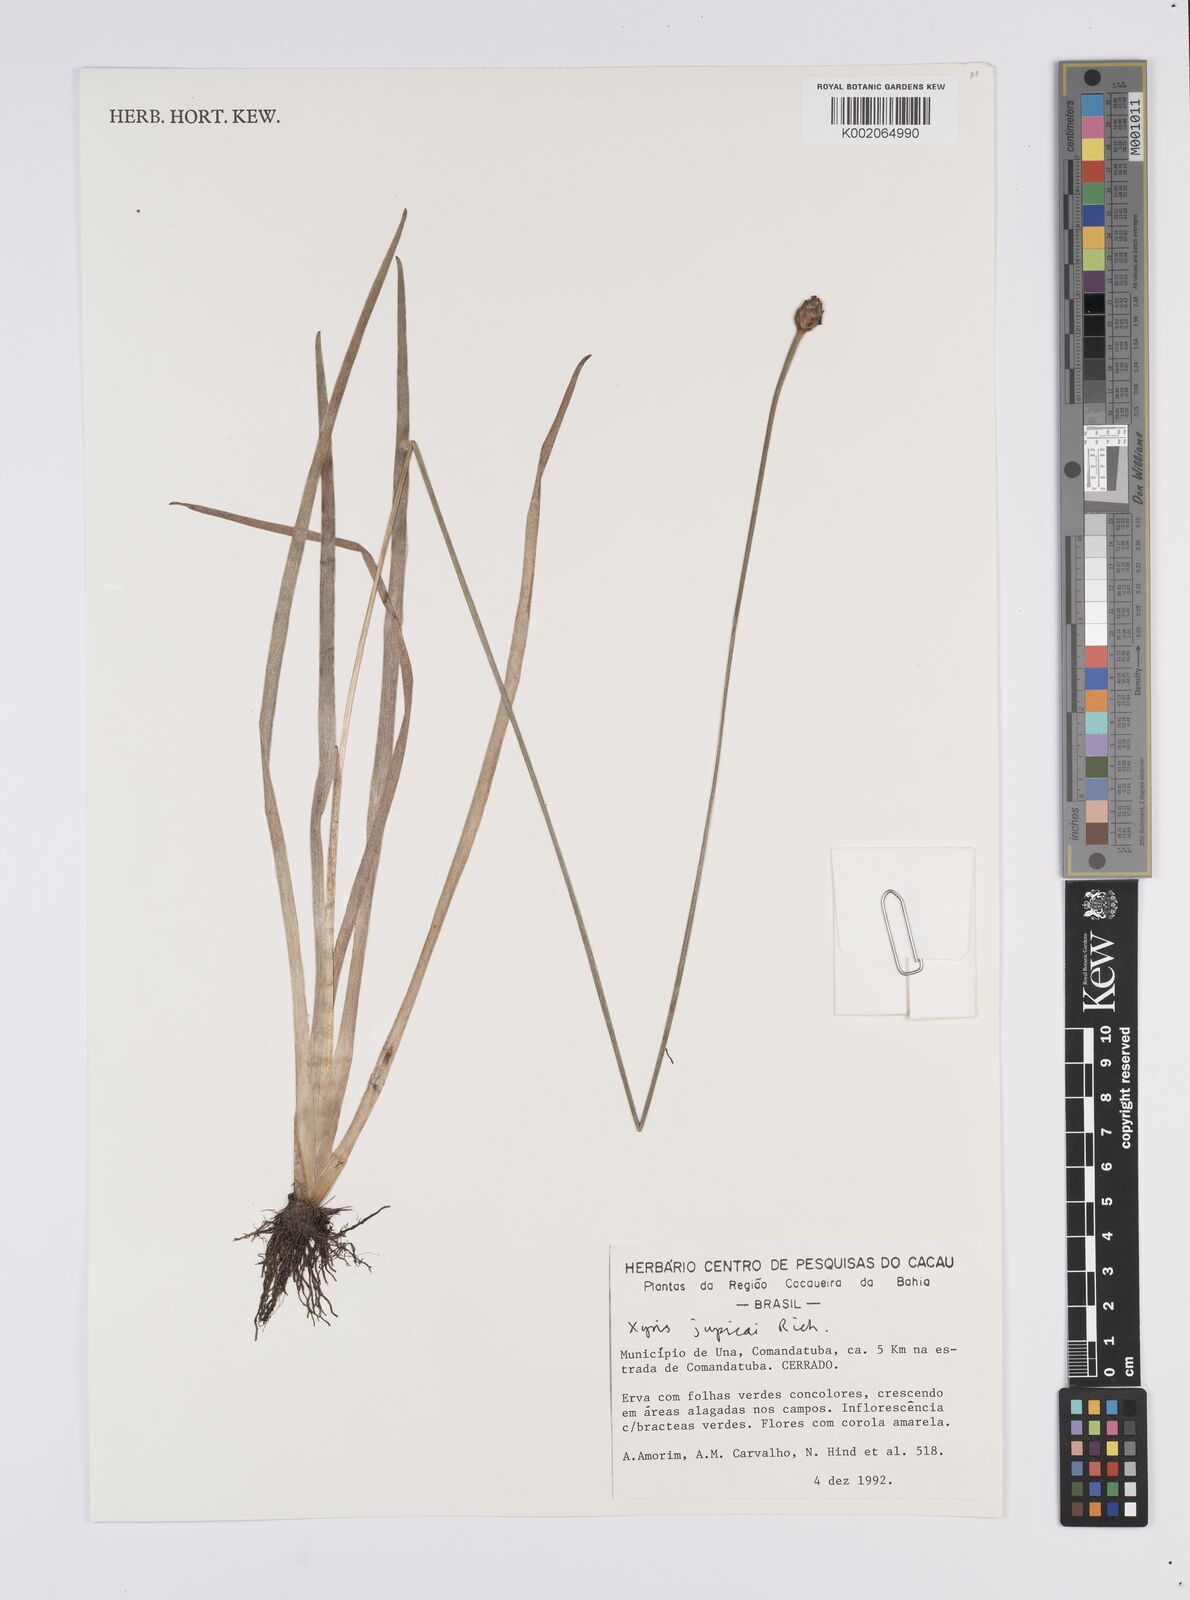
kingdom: Plantae
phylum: Tracheophyta
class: Liliopsida
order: Poales
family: Xyridaceae
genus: Xyris
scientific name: Xyris jupicai
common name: Richard's yelloweyed grass
